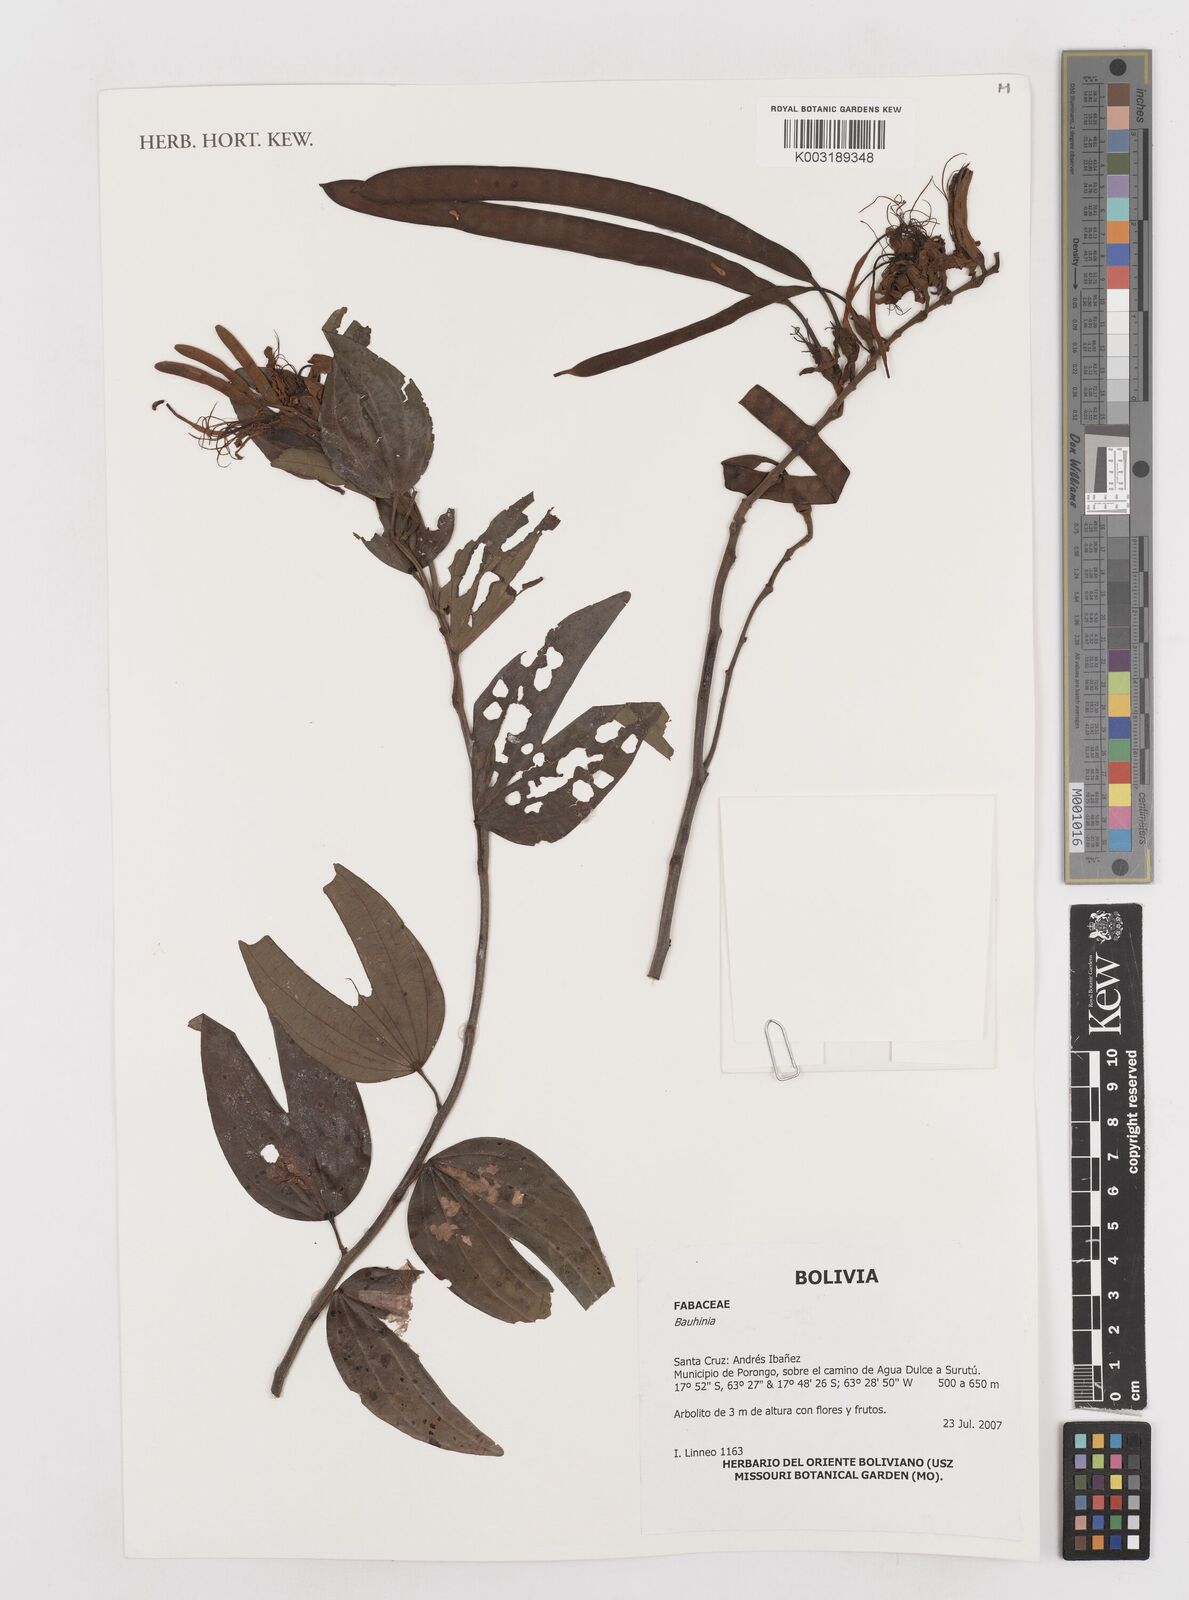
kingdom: Plantae
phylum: Tracheophyta
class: Magnoliopsida
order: Fabales
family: Fabaceae
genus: Bauhinia
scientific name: Bauhinia
